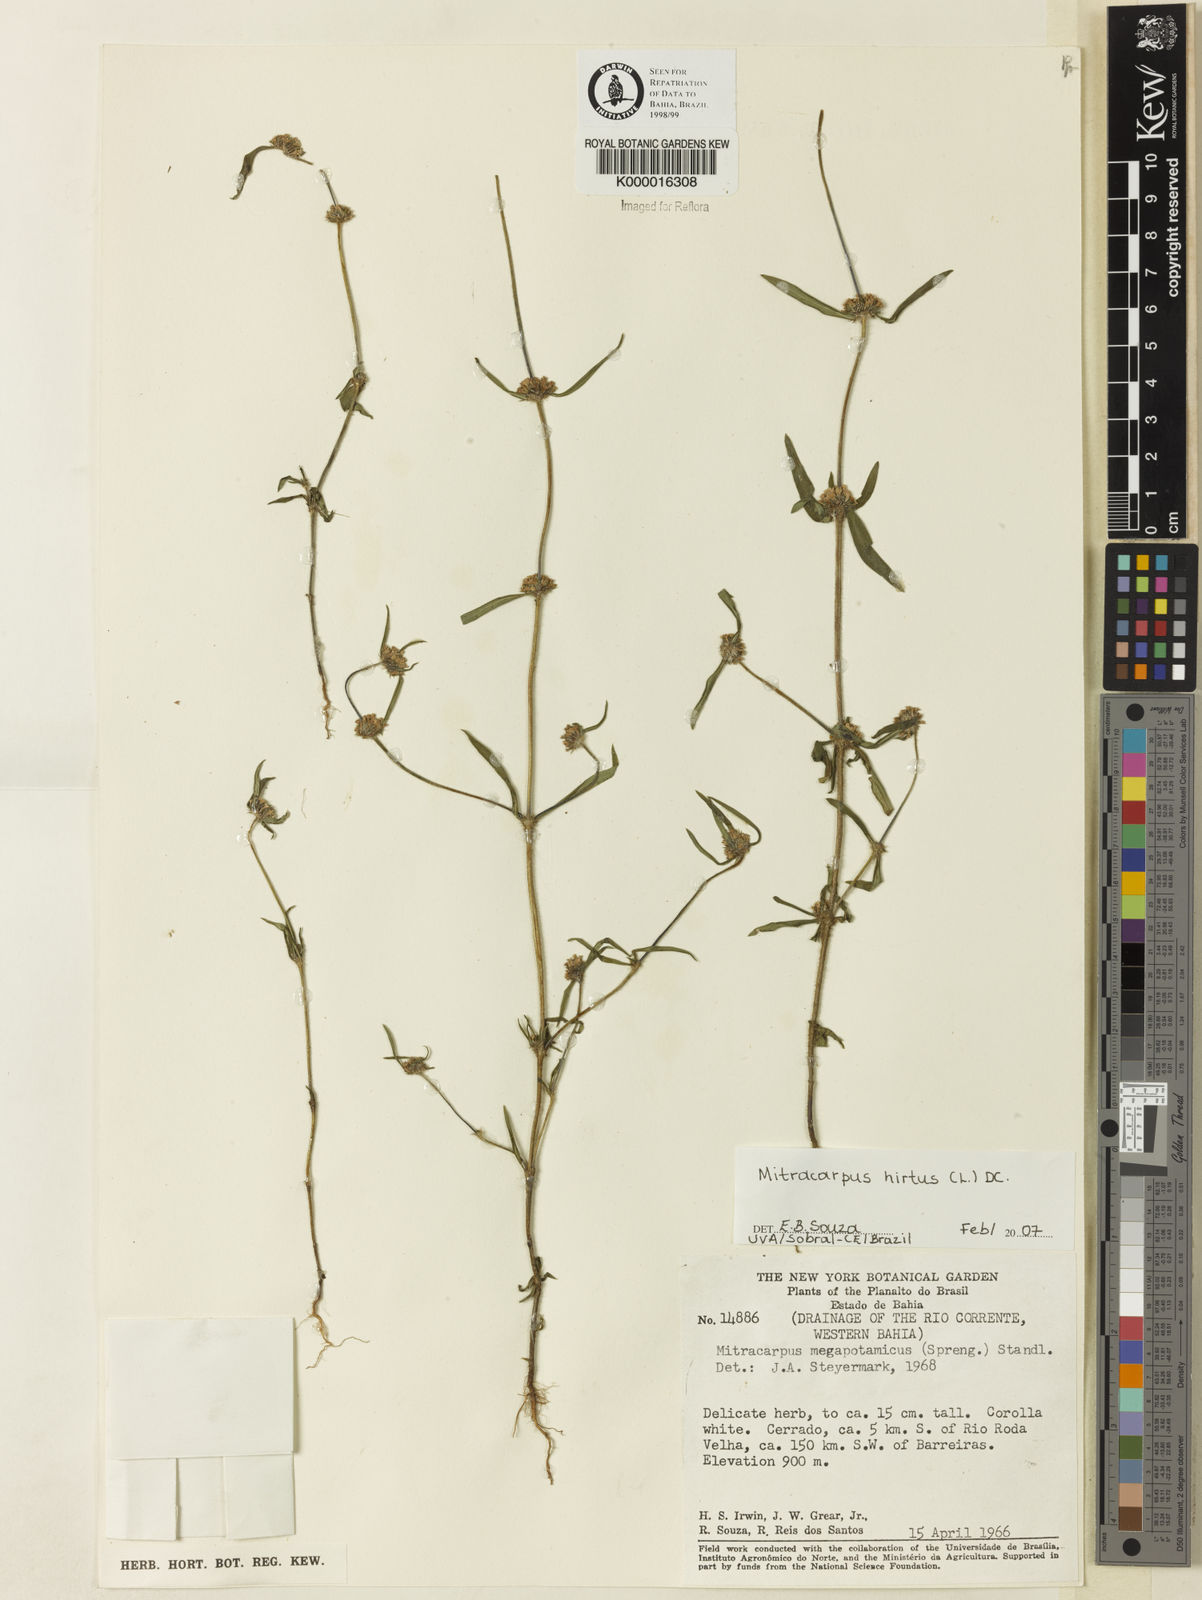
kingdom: Plantae
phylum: Tracheophyta
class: Magnoliopsida
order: Gentianales
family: Rubiaceae
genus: Mitracarpus
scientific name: Mitracarpus
